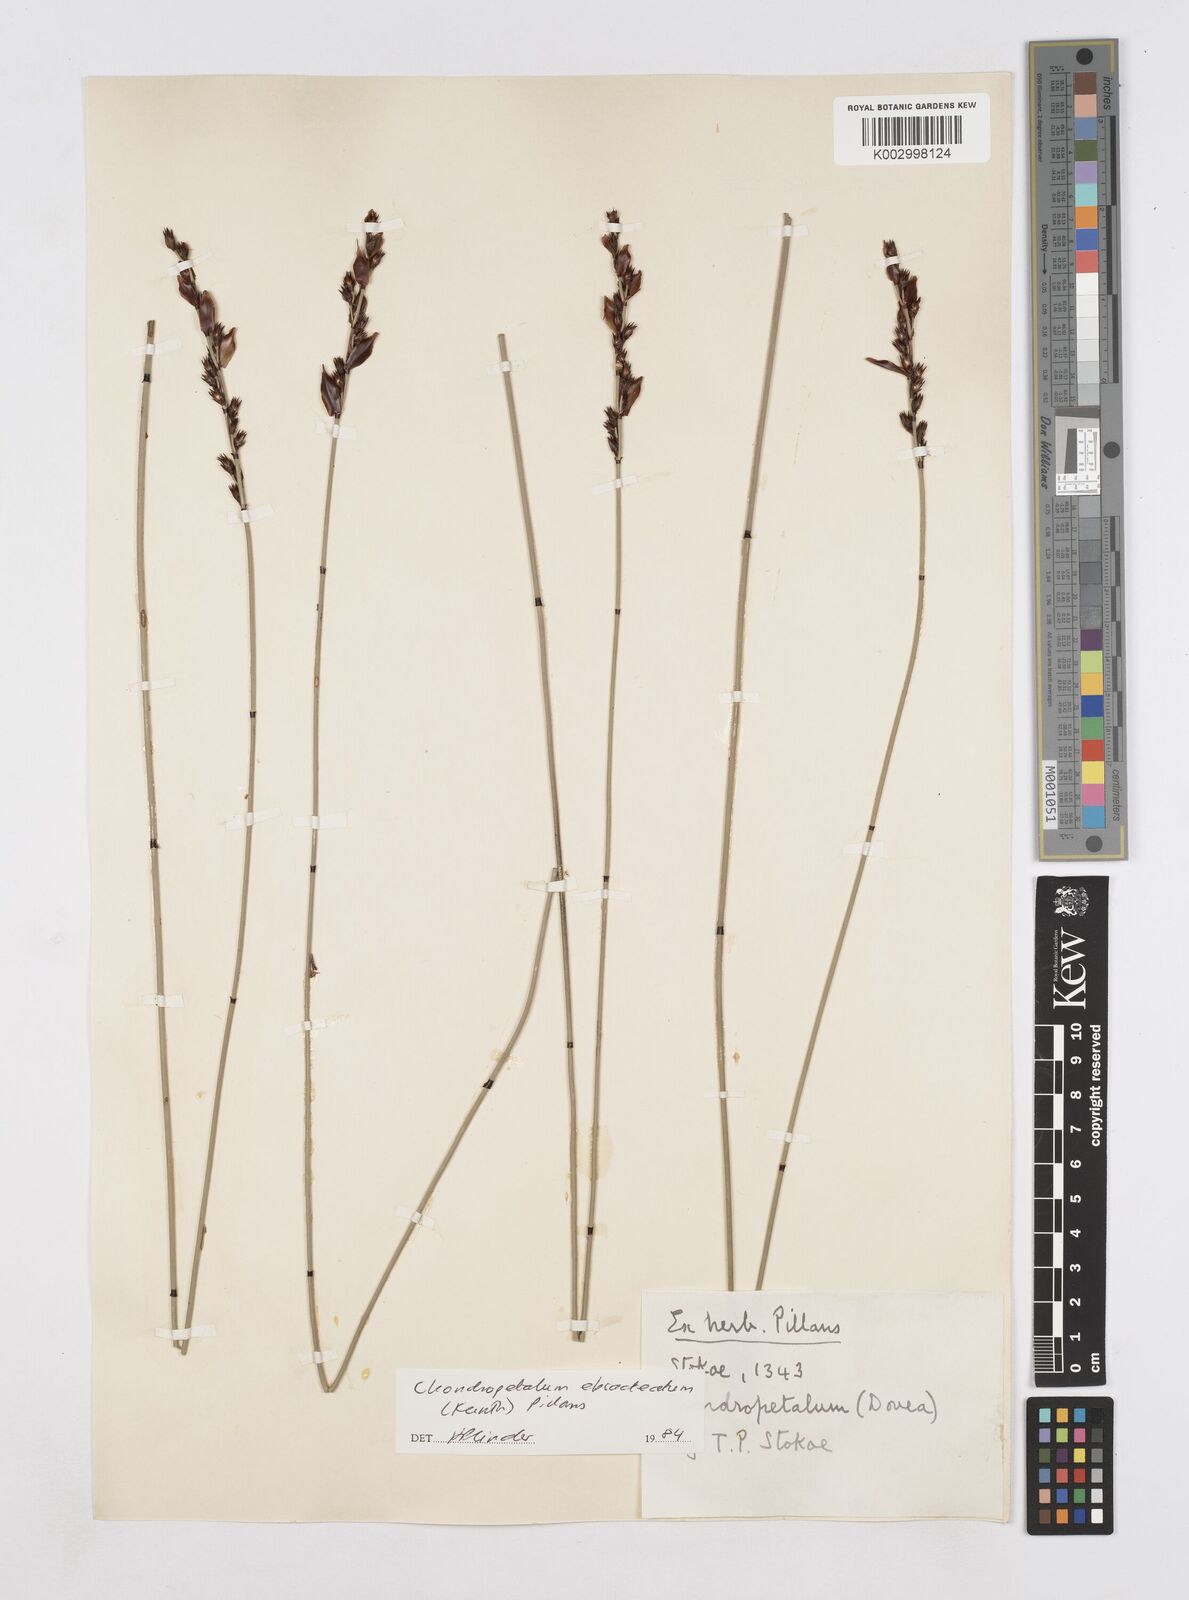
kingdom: Plantae
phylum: Tracheophyta
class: Liliopsida
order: Poales
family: Restionaceae
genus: Elegia
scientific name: Elegia ebracteata
